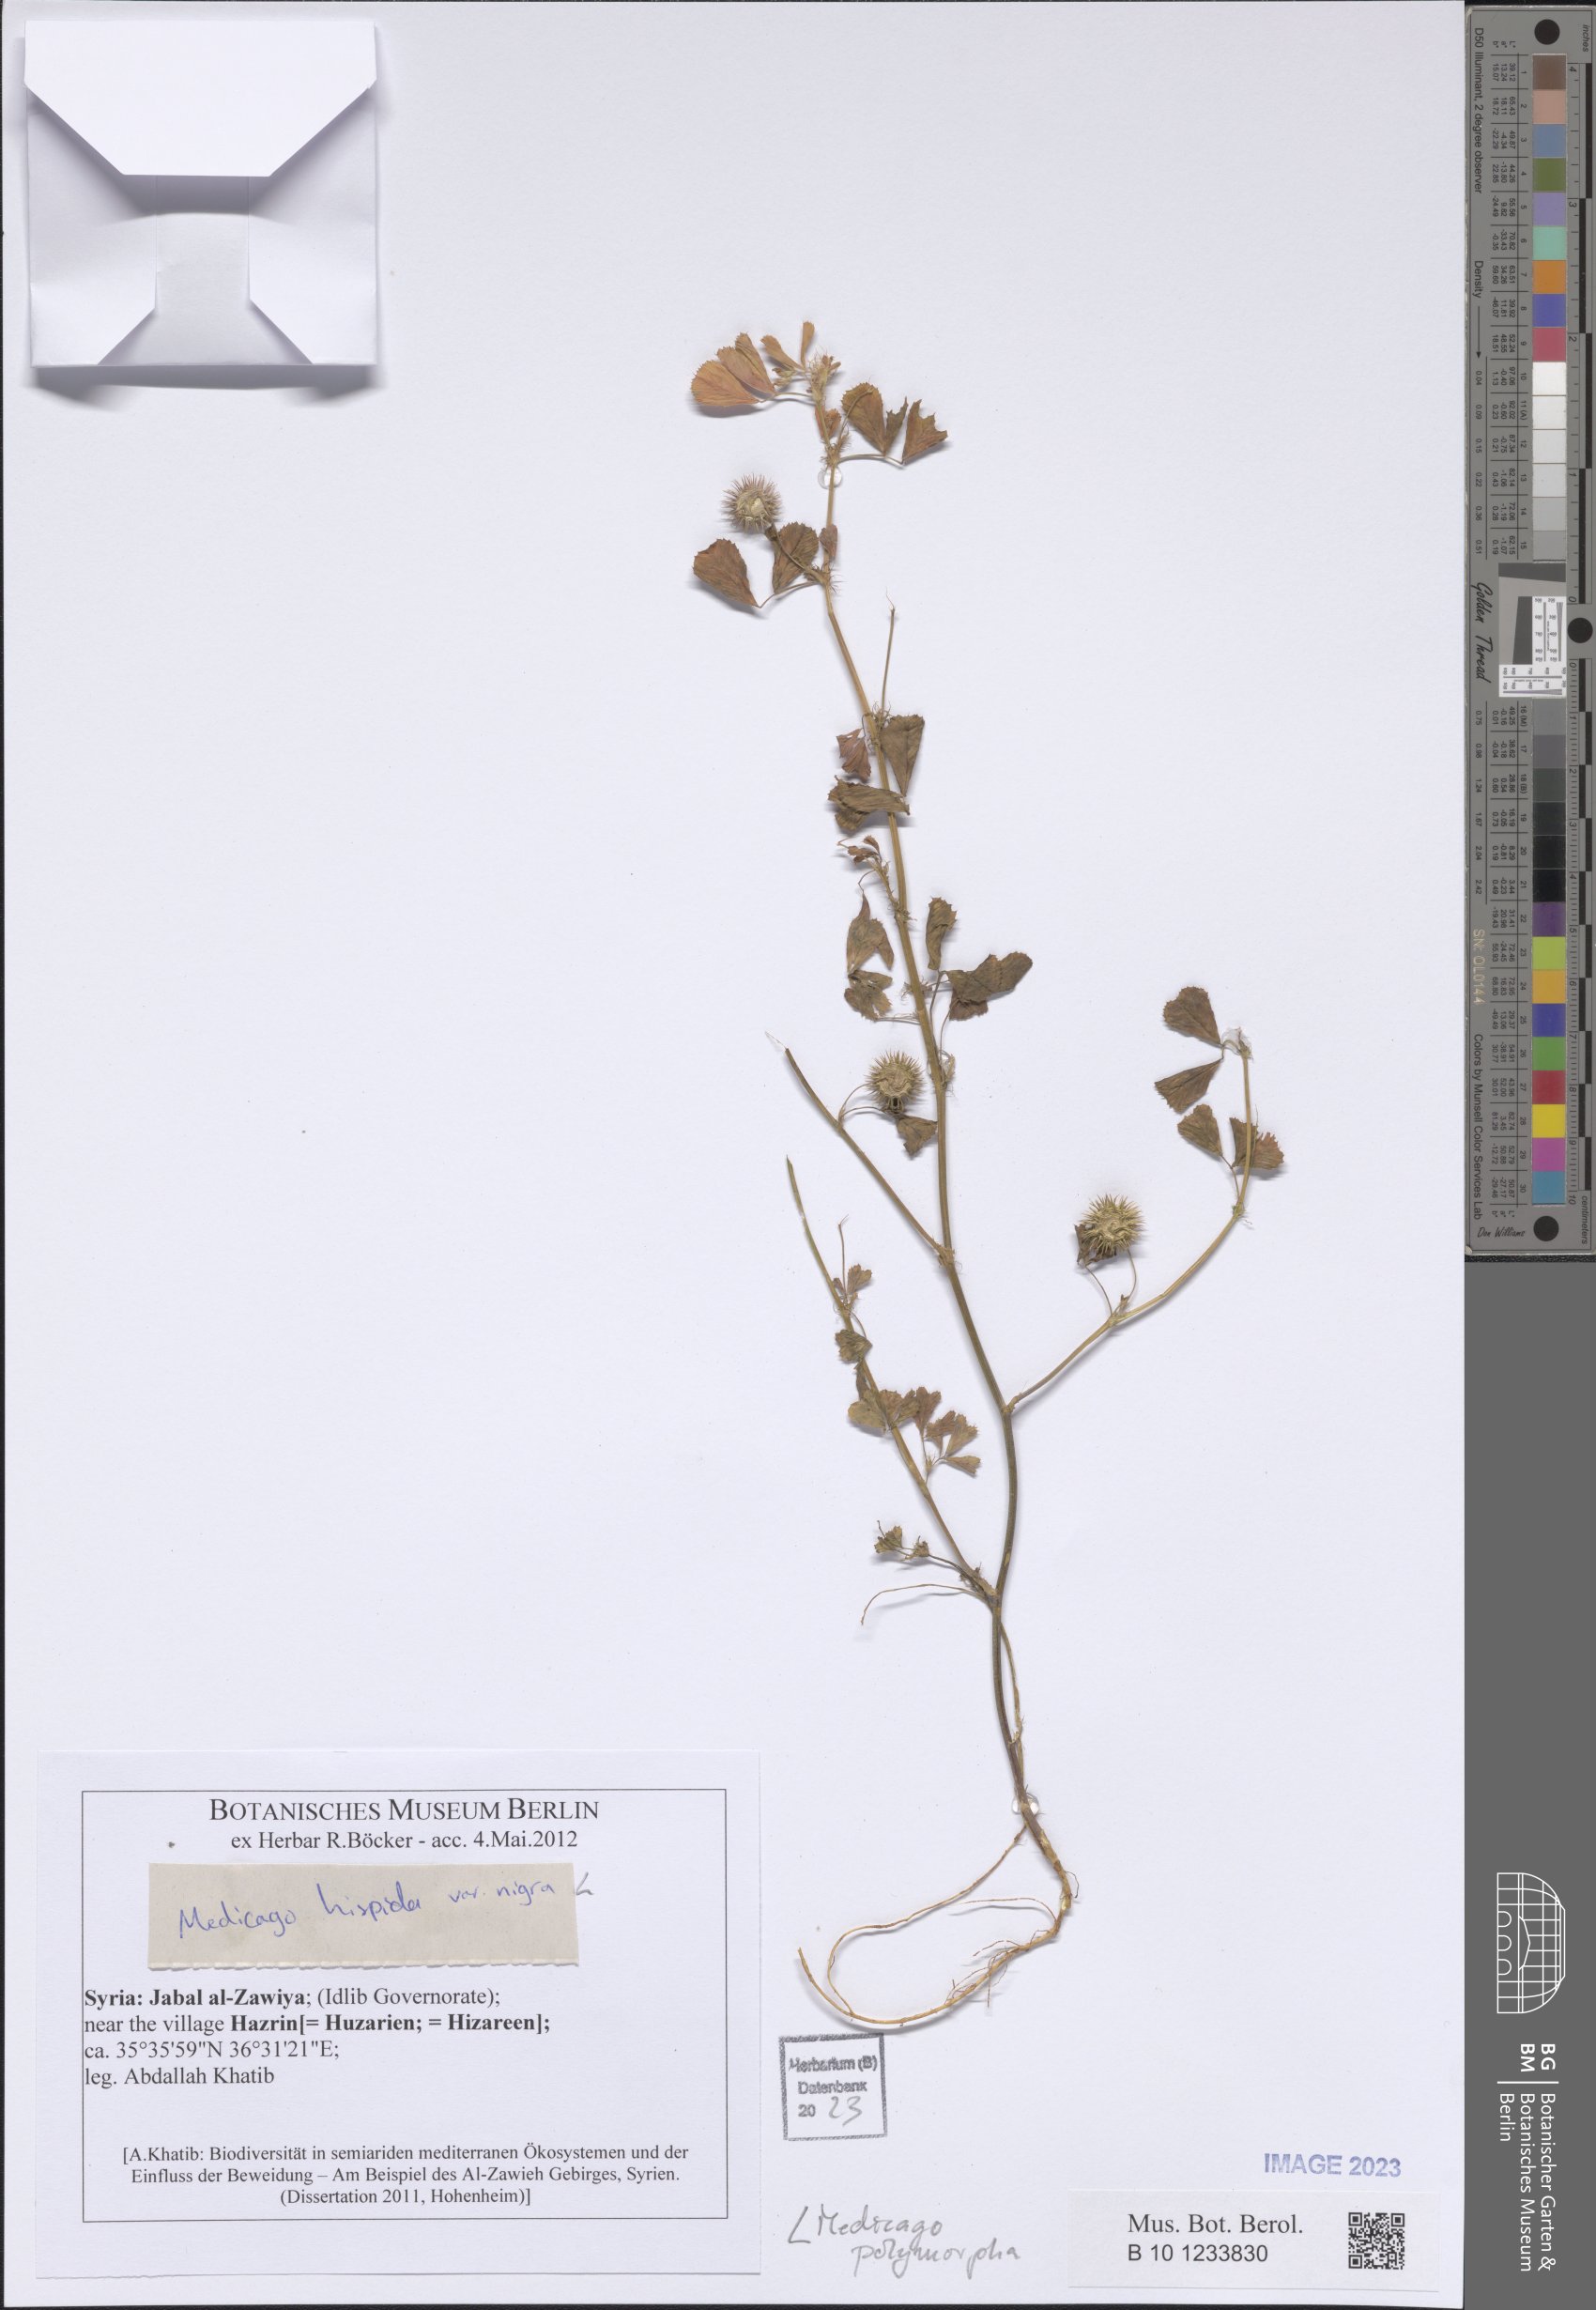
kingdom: Plantae
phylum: Tracheophyta
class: Magnoliopsida
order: Fabales
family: Fabaceae
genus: Medicago
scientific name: Medicago polymorpha
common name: Burclover
